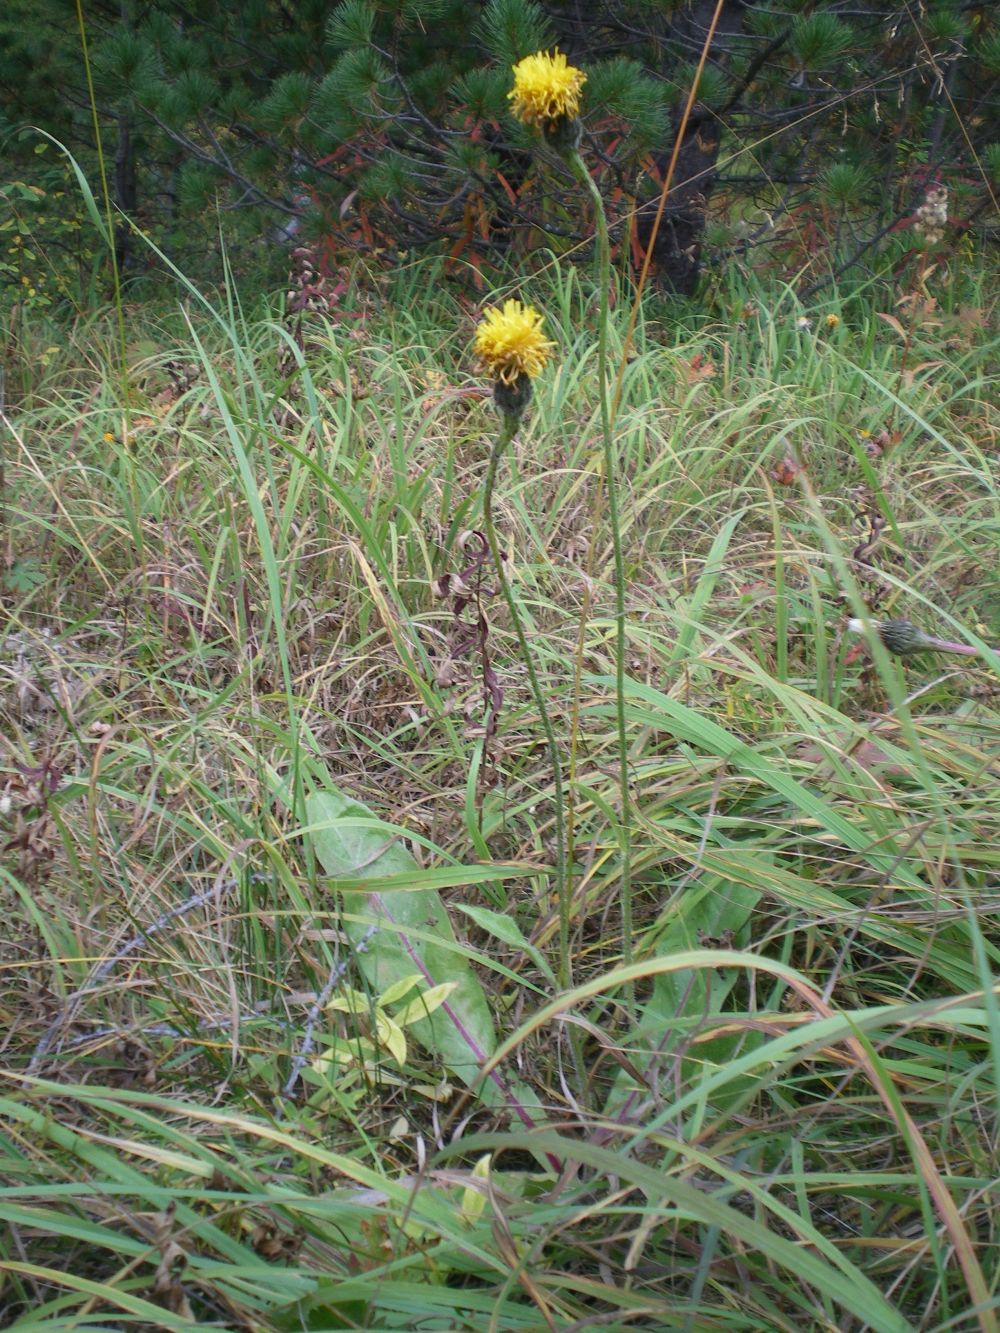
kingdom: Plantae
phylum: Tracheophyta
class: Magnoliopsida
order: Asterales
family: Asteraceae
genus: Trommsdorffia
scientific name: Trommsdorffia maculata
